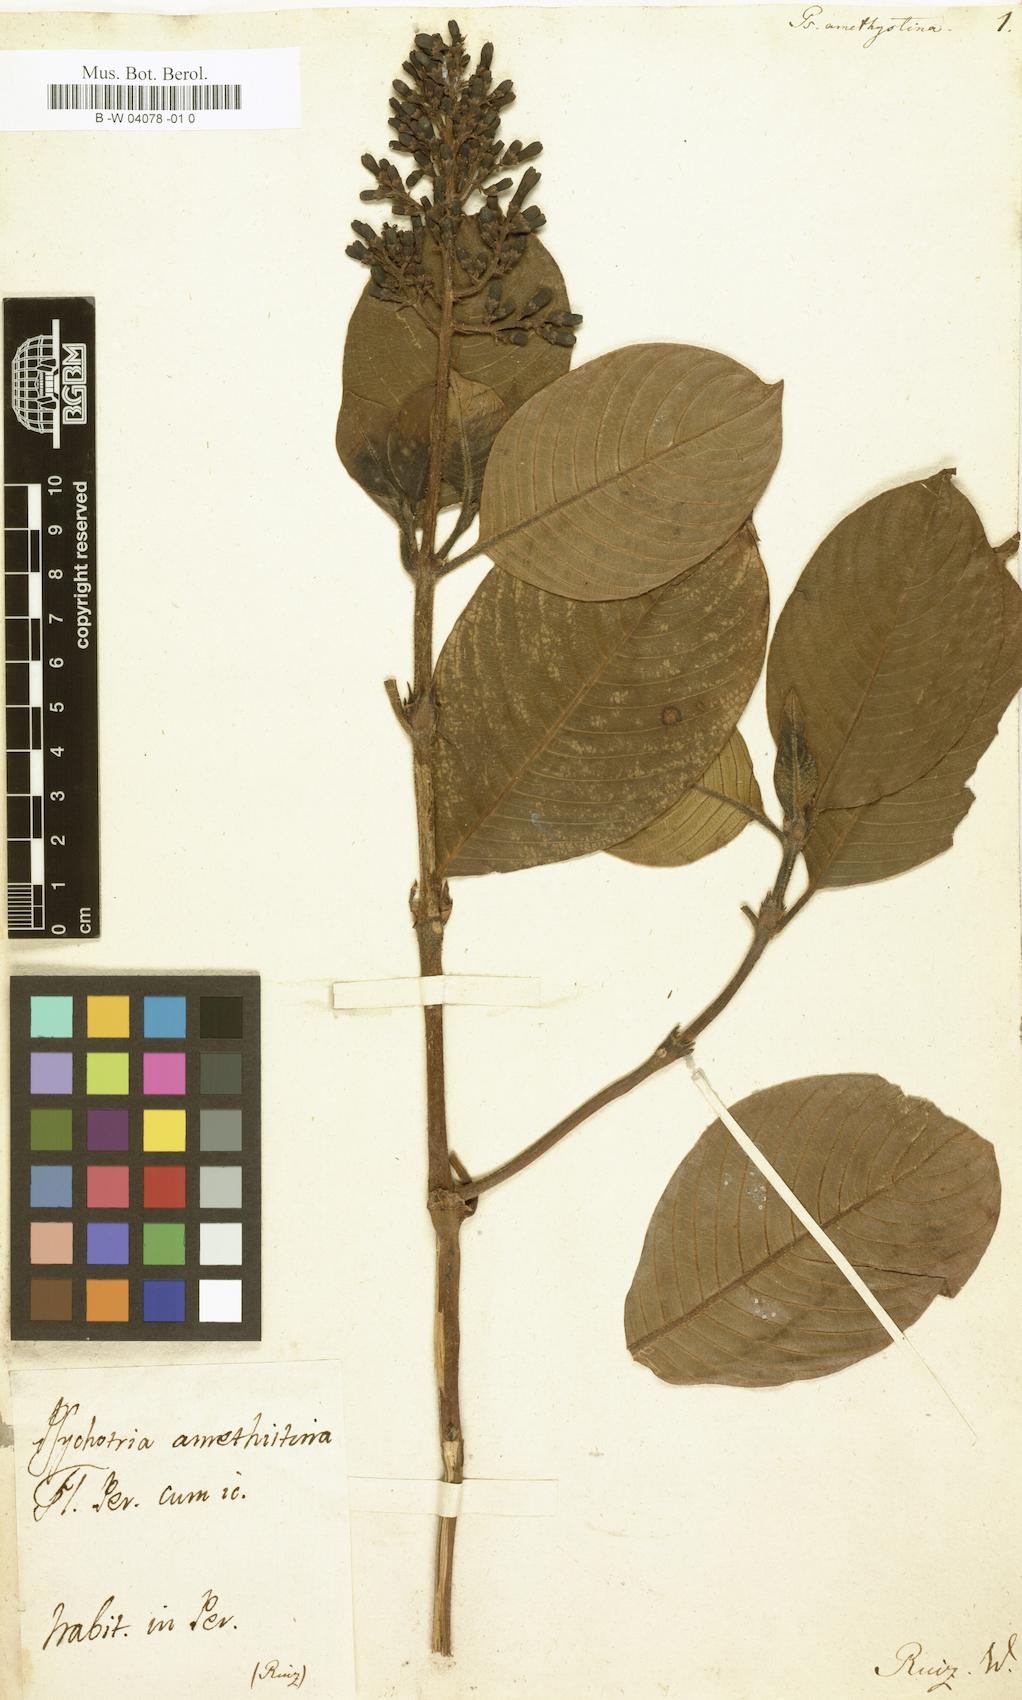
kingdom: Plantae
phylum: Tracheophyta
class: Magnoliopsida
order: Gentianales
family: Rubiaceae
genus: Palicourea
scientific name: Palicourea amethystina
